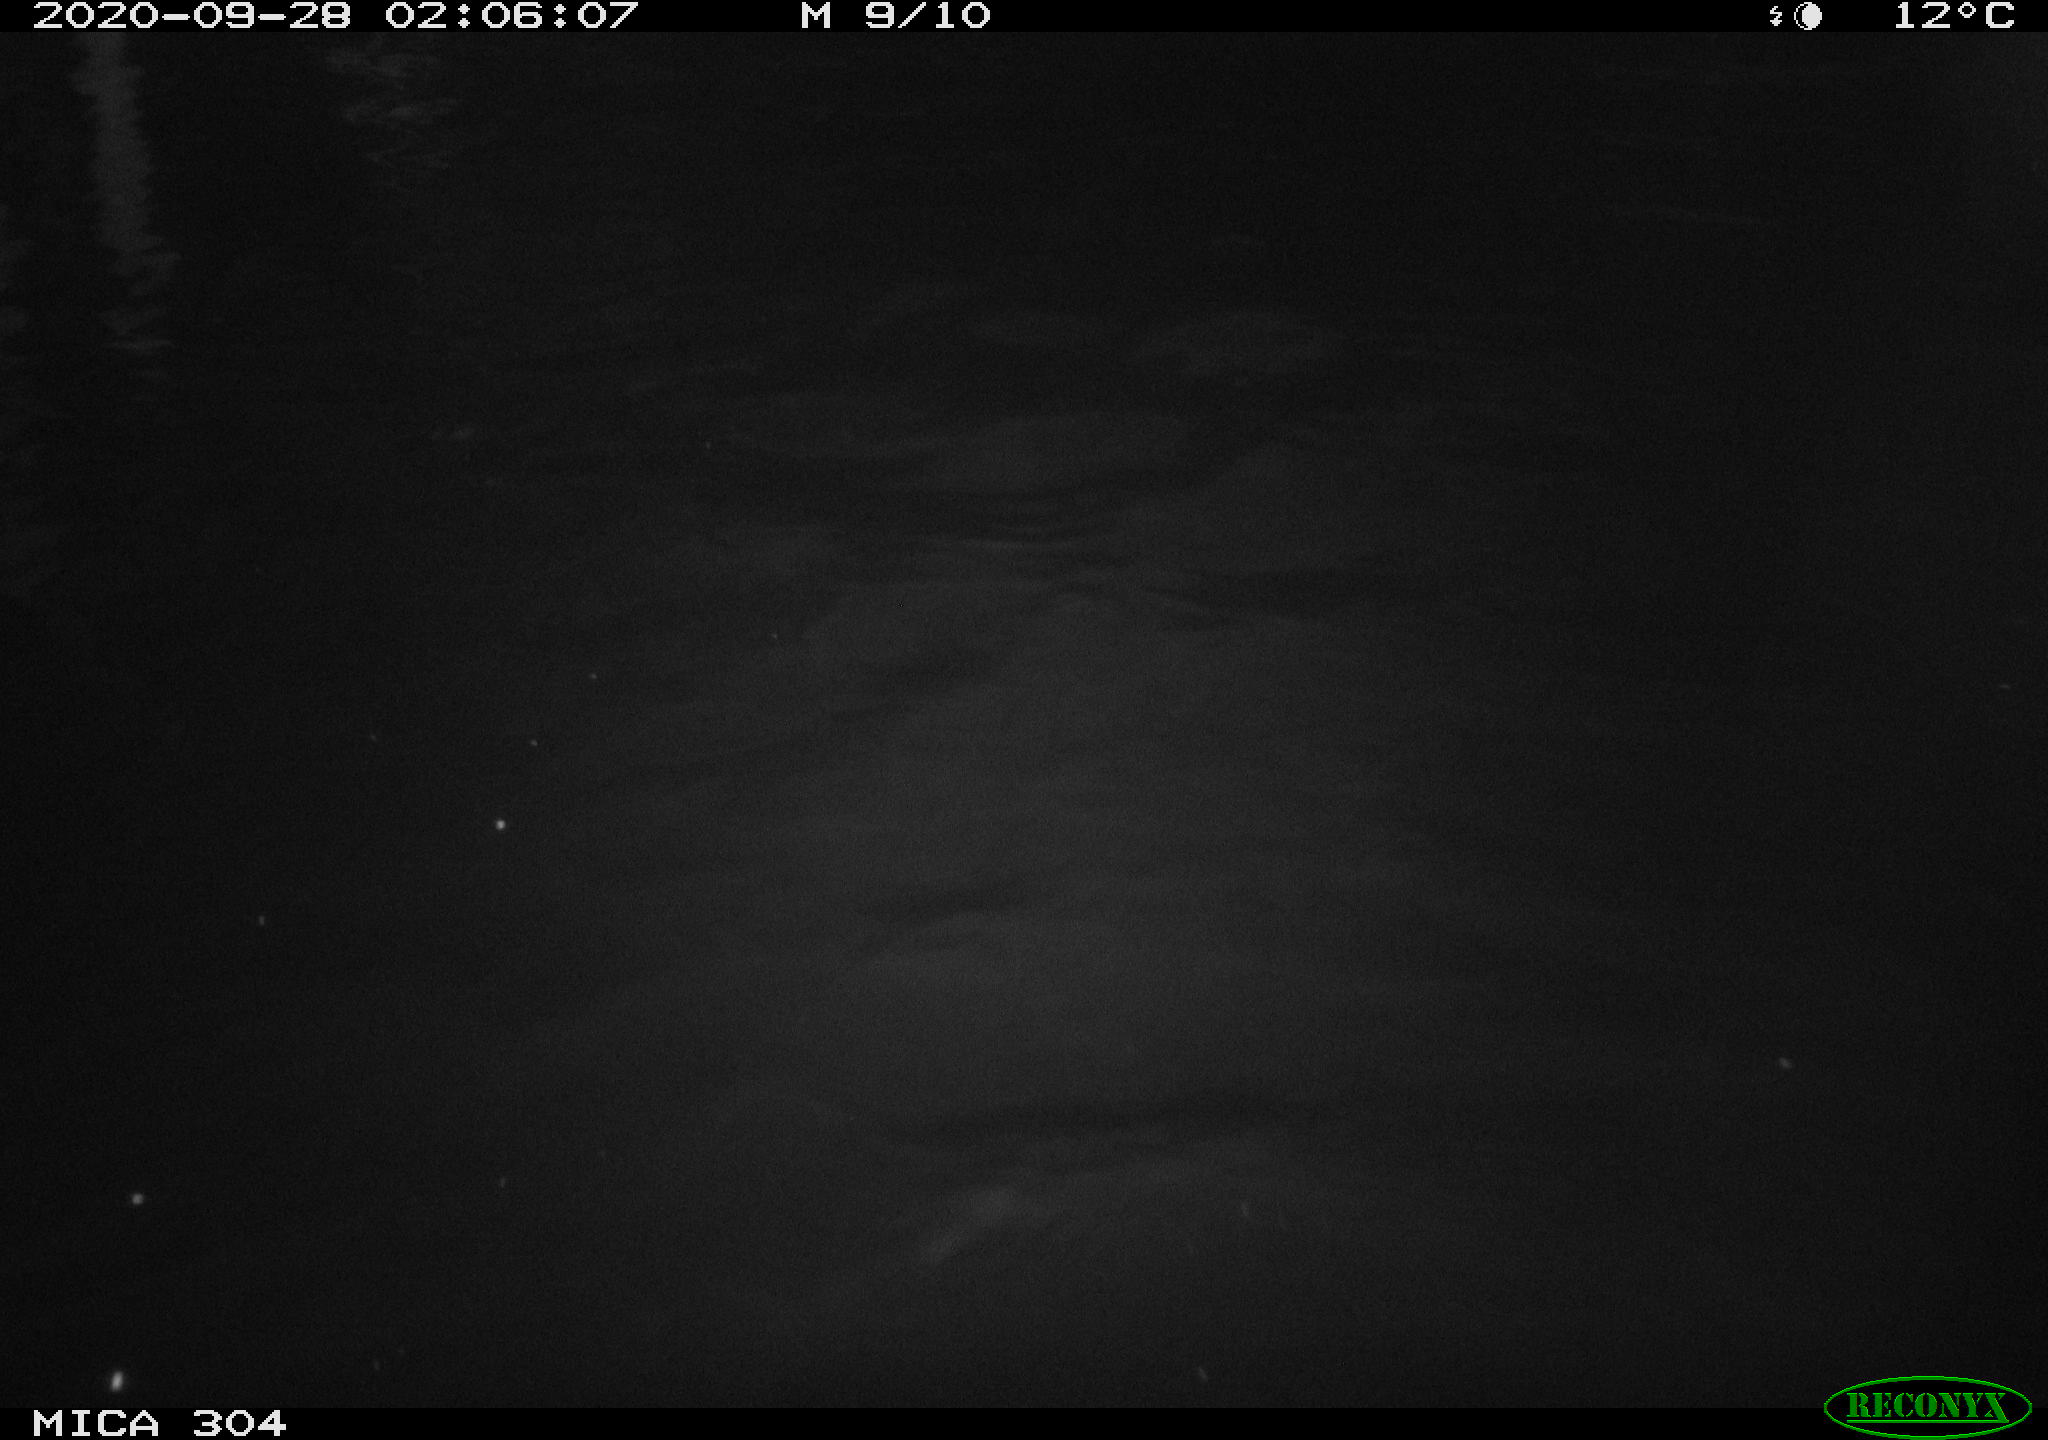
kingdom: Animalia
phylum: Chordata
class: Mammalia
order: Rodentia
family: Cricetidae
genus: Ondatra
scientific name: Ondatra zibethicus
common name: Muskrat
